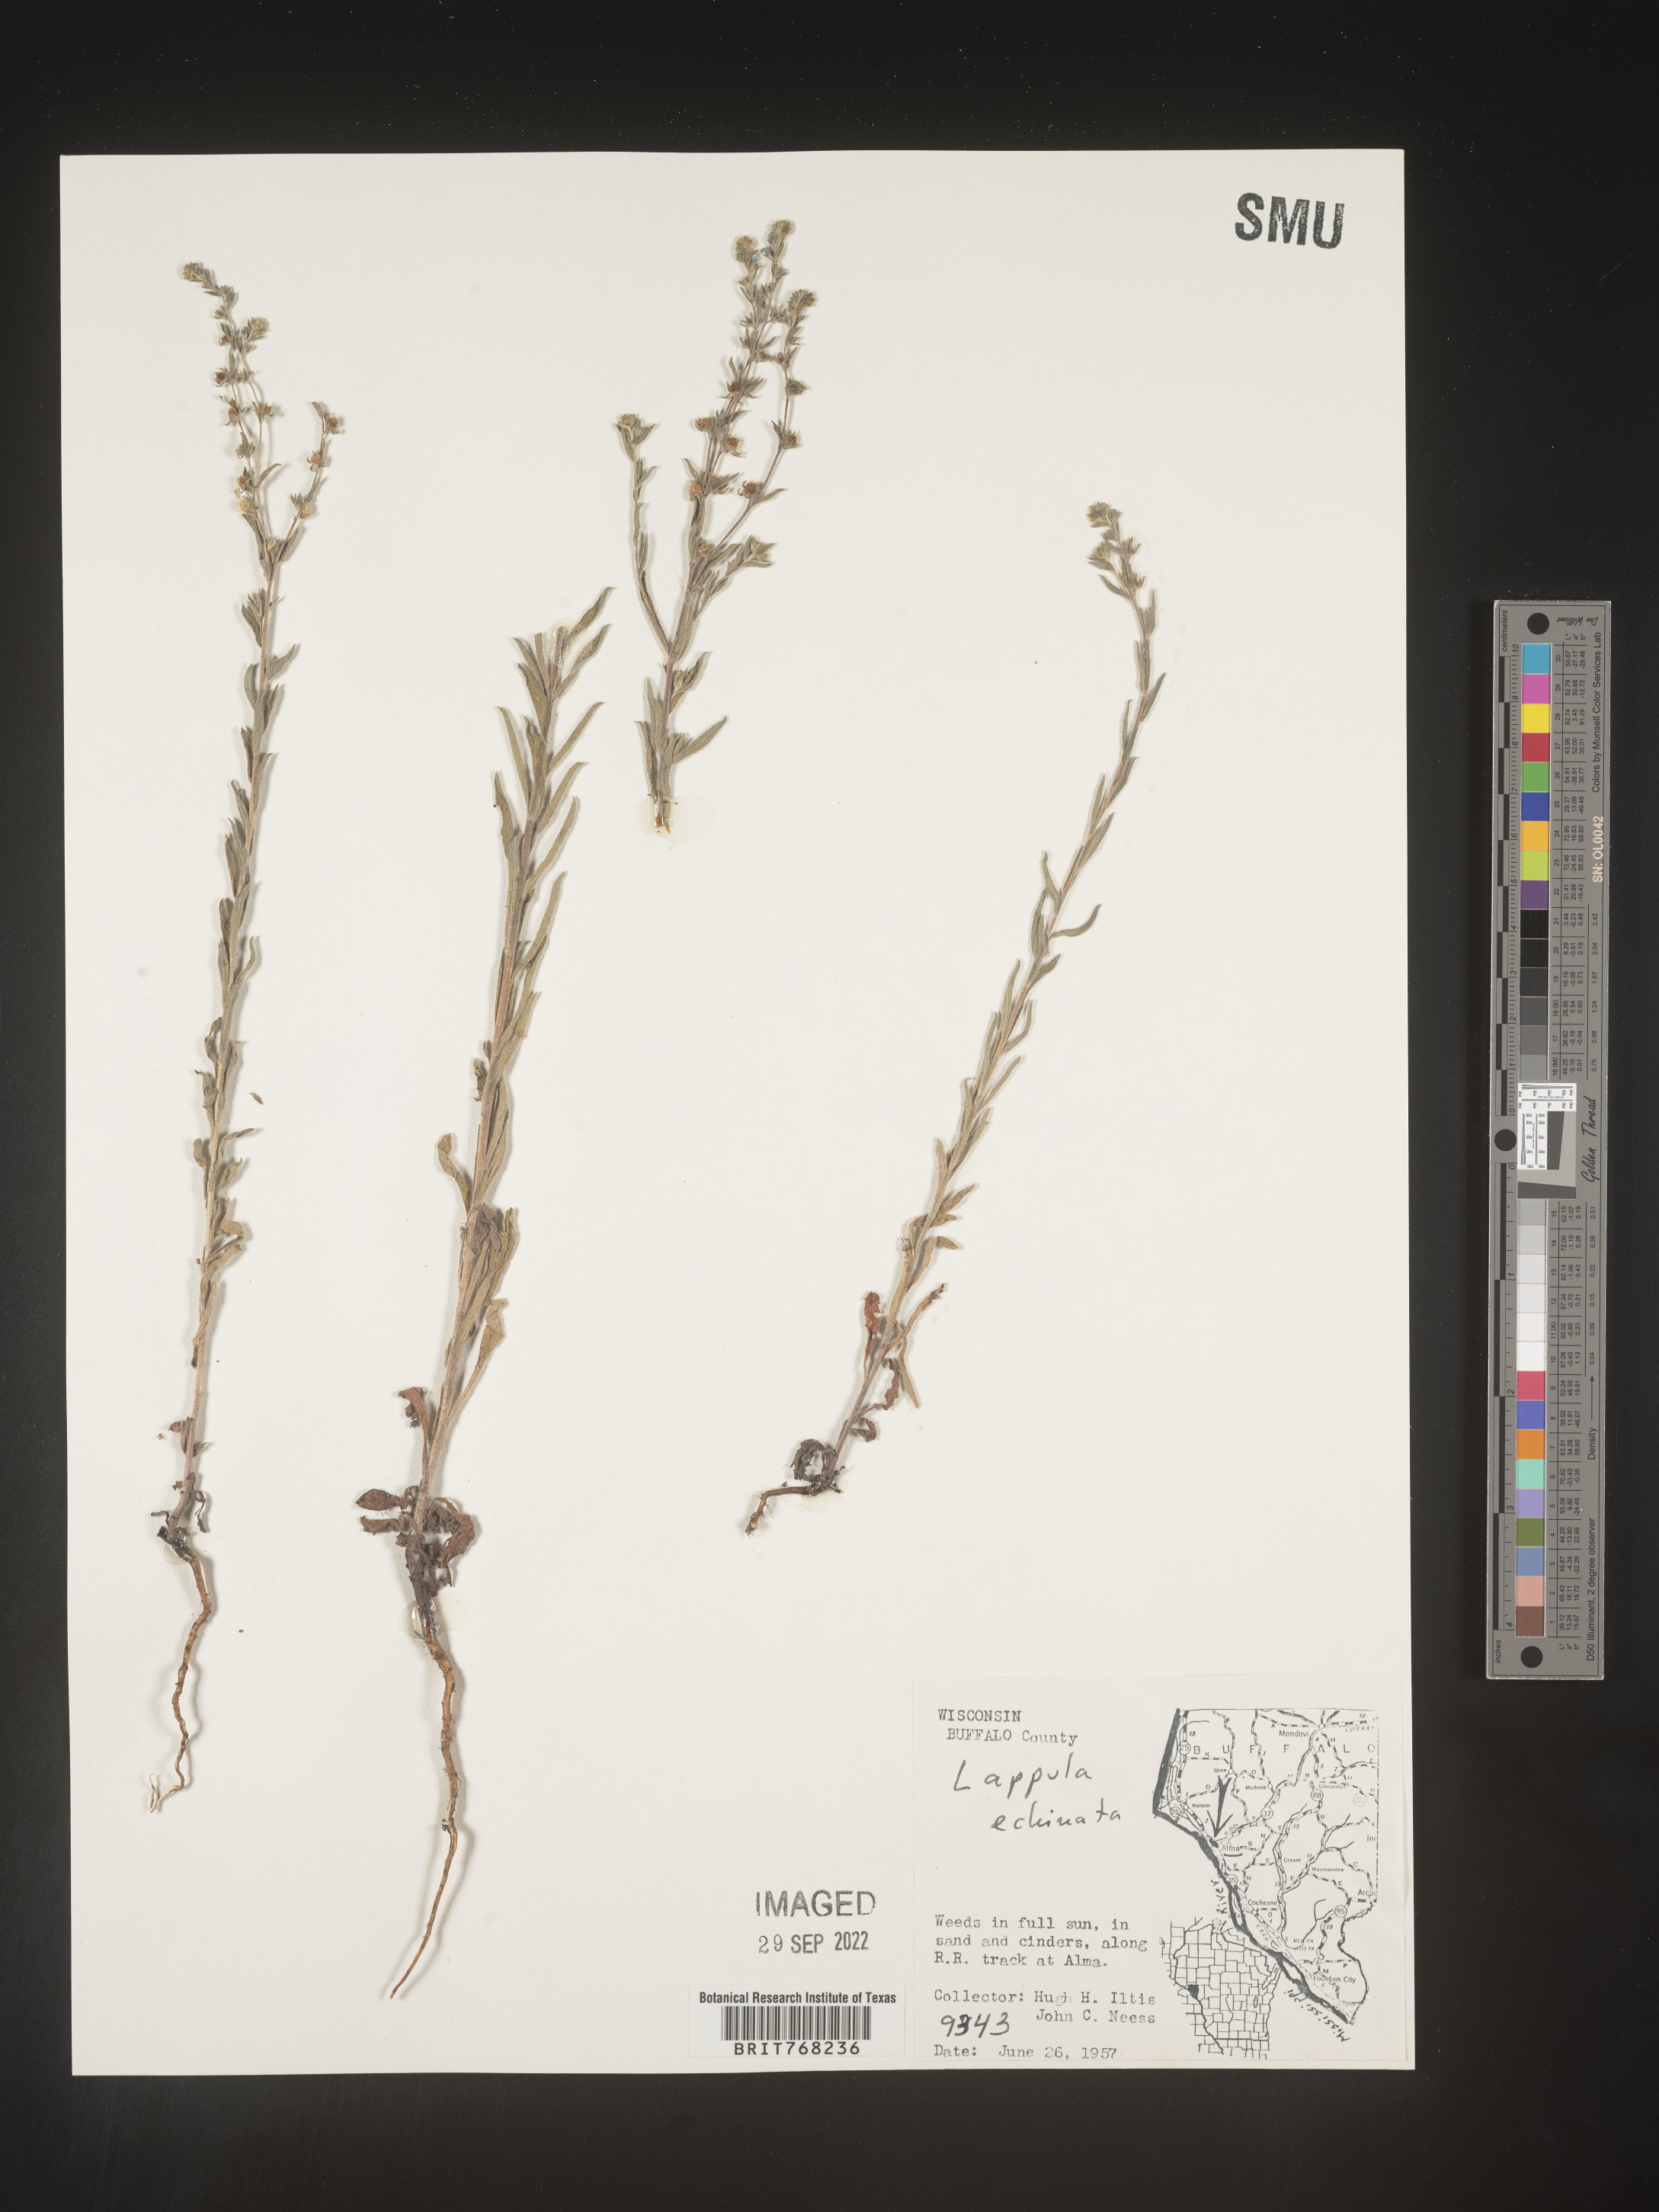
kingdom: Plantae
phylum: Tracheophyta
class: Magnoliopsida
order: Boraginales
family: Boraginaceae
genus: Lappula
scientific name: Lappula
